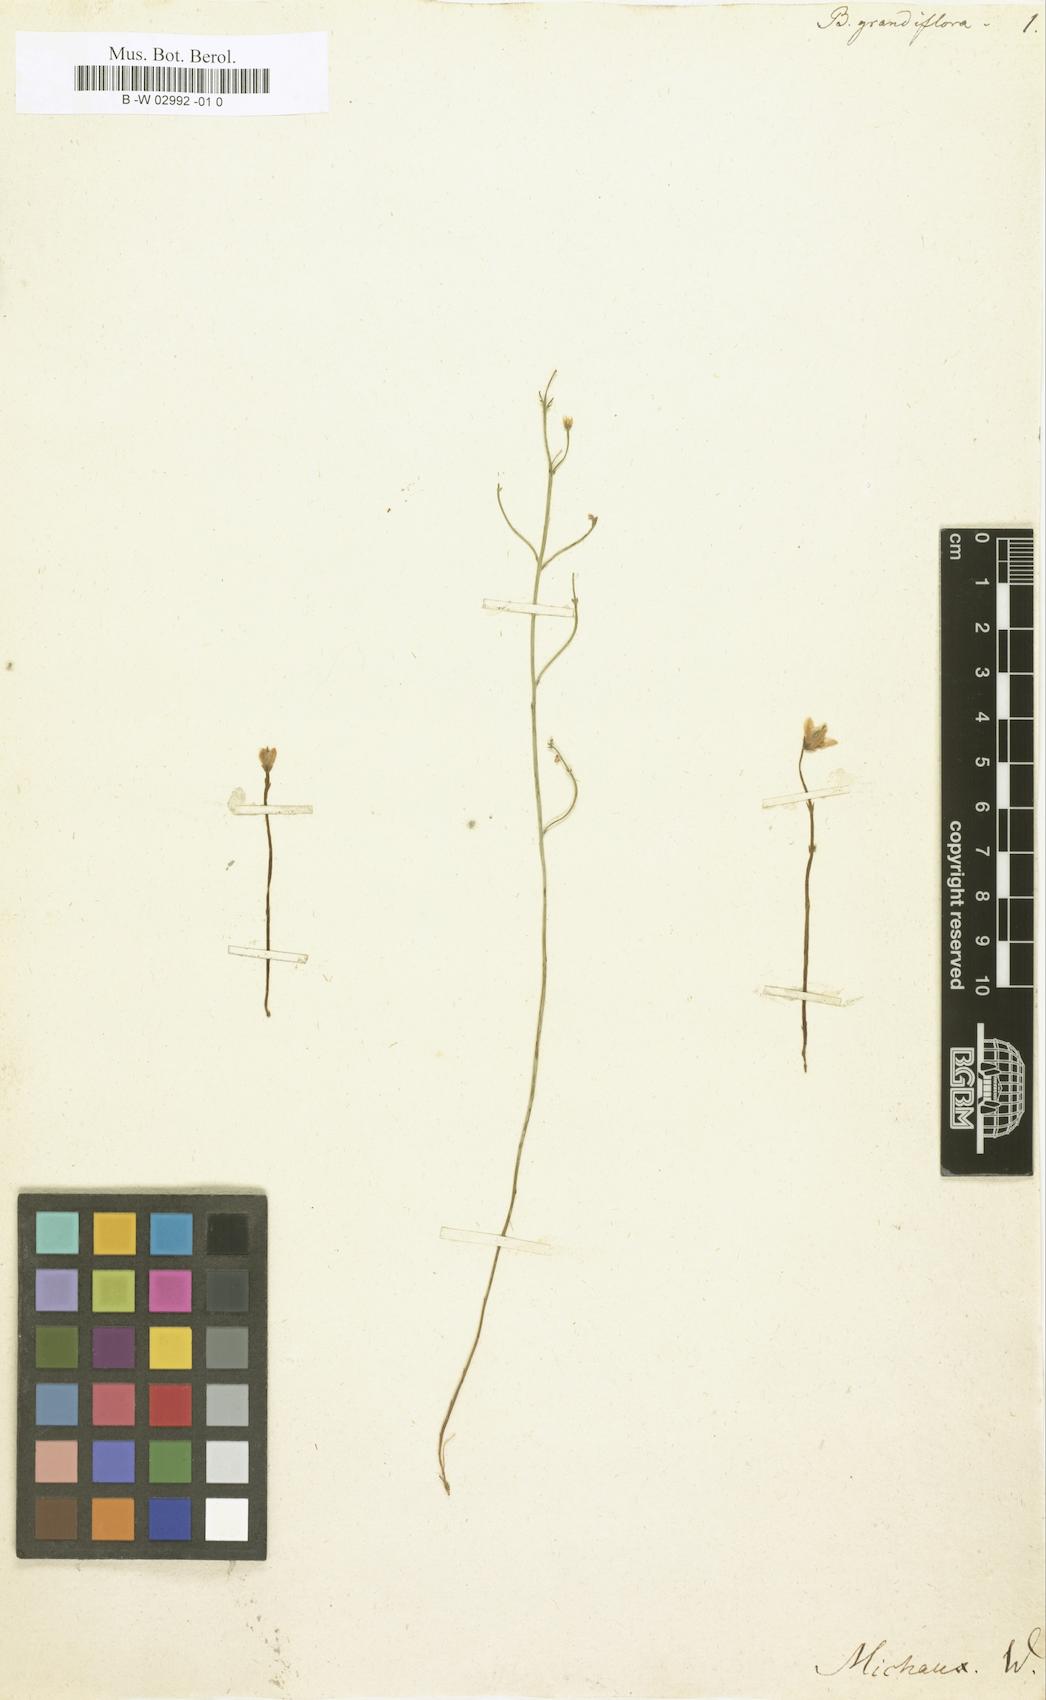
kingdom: Plantae
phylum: Tracheophyta
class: Magnoliopsida
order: Gentianales
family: Gentianaceae
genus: Bartonia
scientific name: Bartonia
